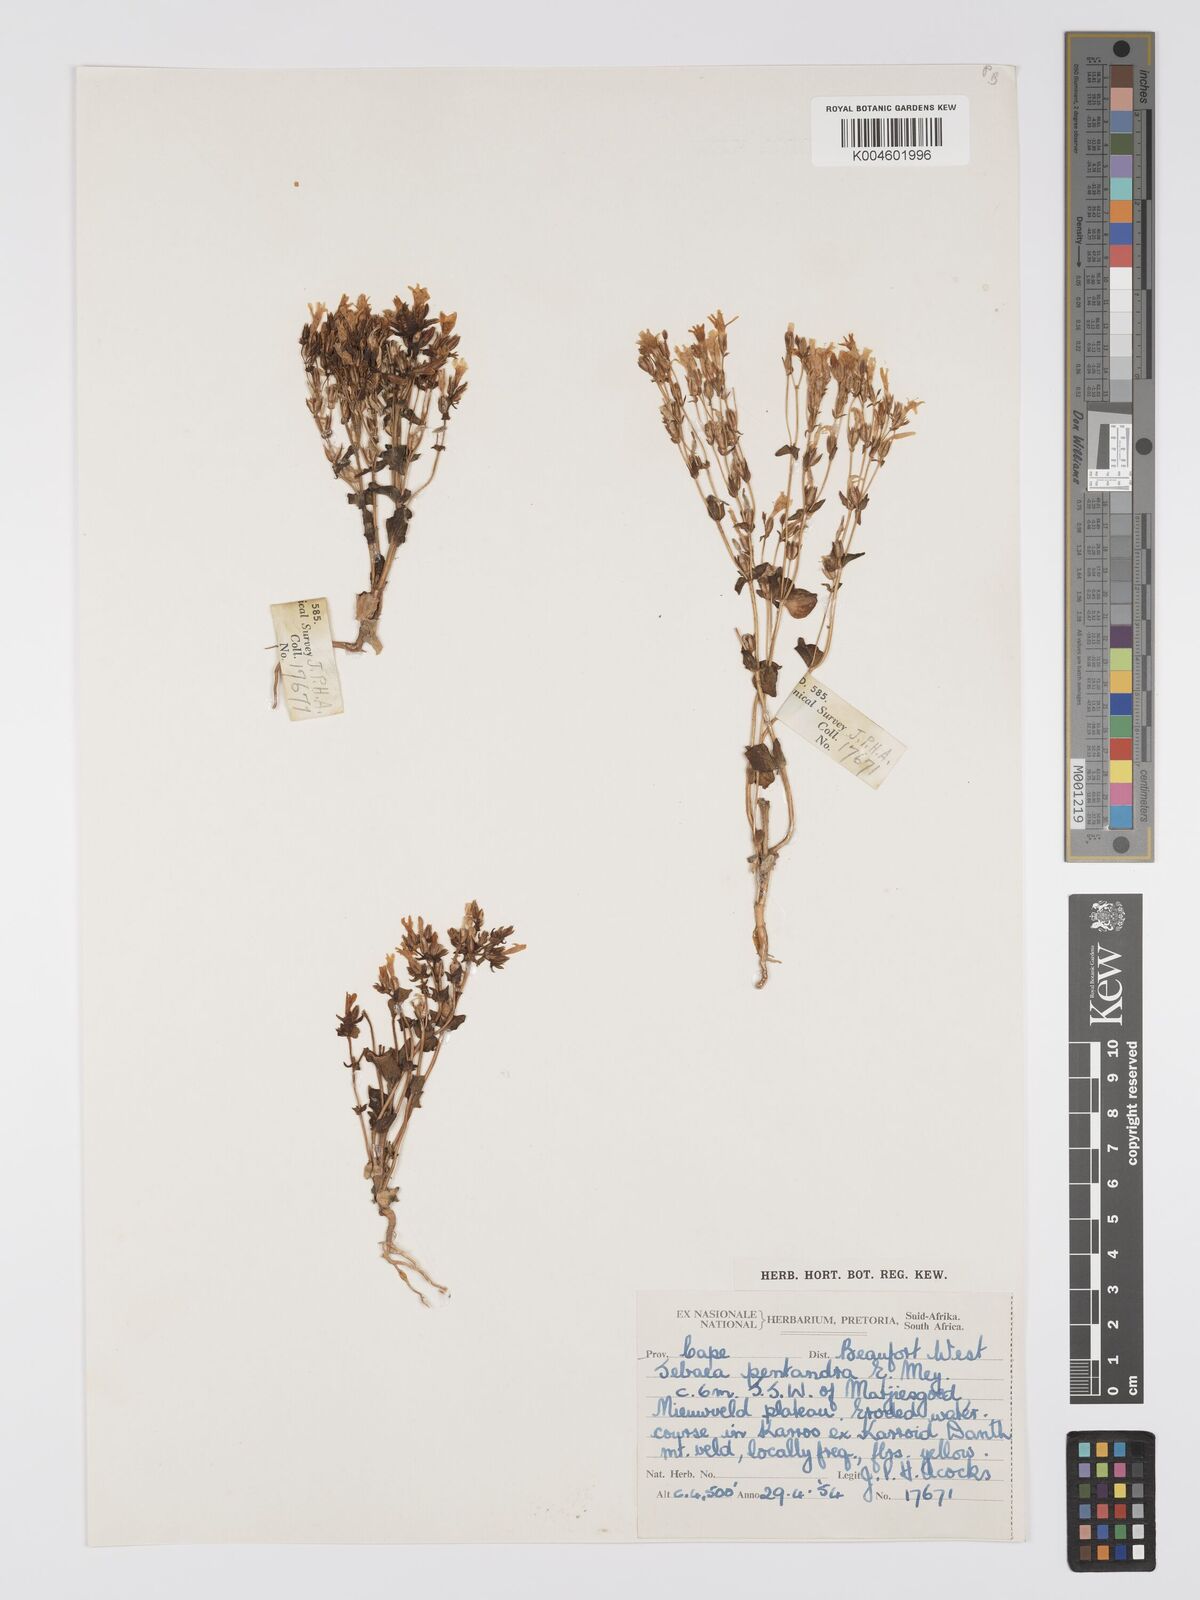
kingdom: Plantae
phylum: Tracheophyta
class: Magnoliopsida
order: Gentianales
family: Gentianaceae
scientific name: Gentianaceae
